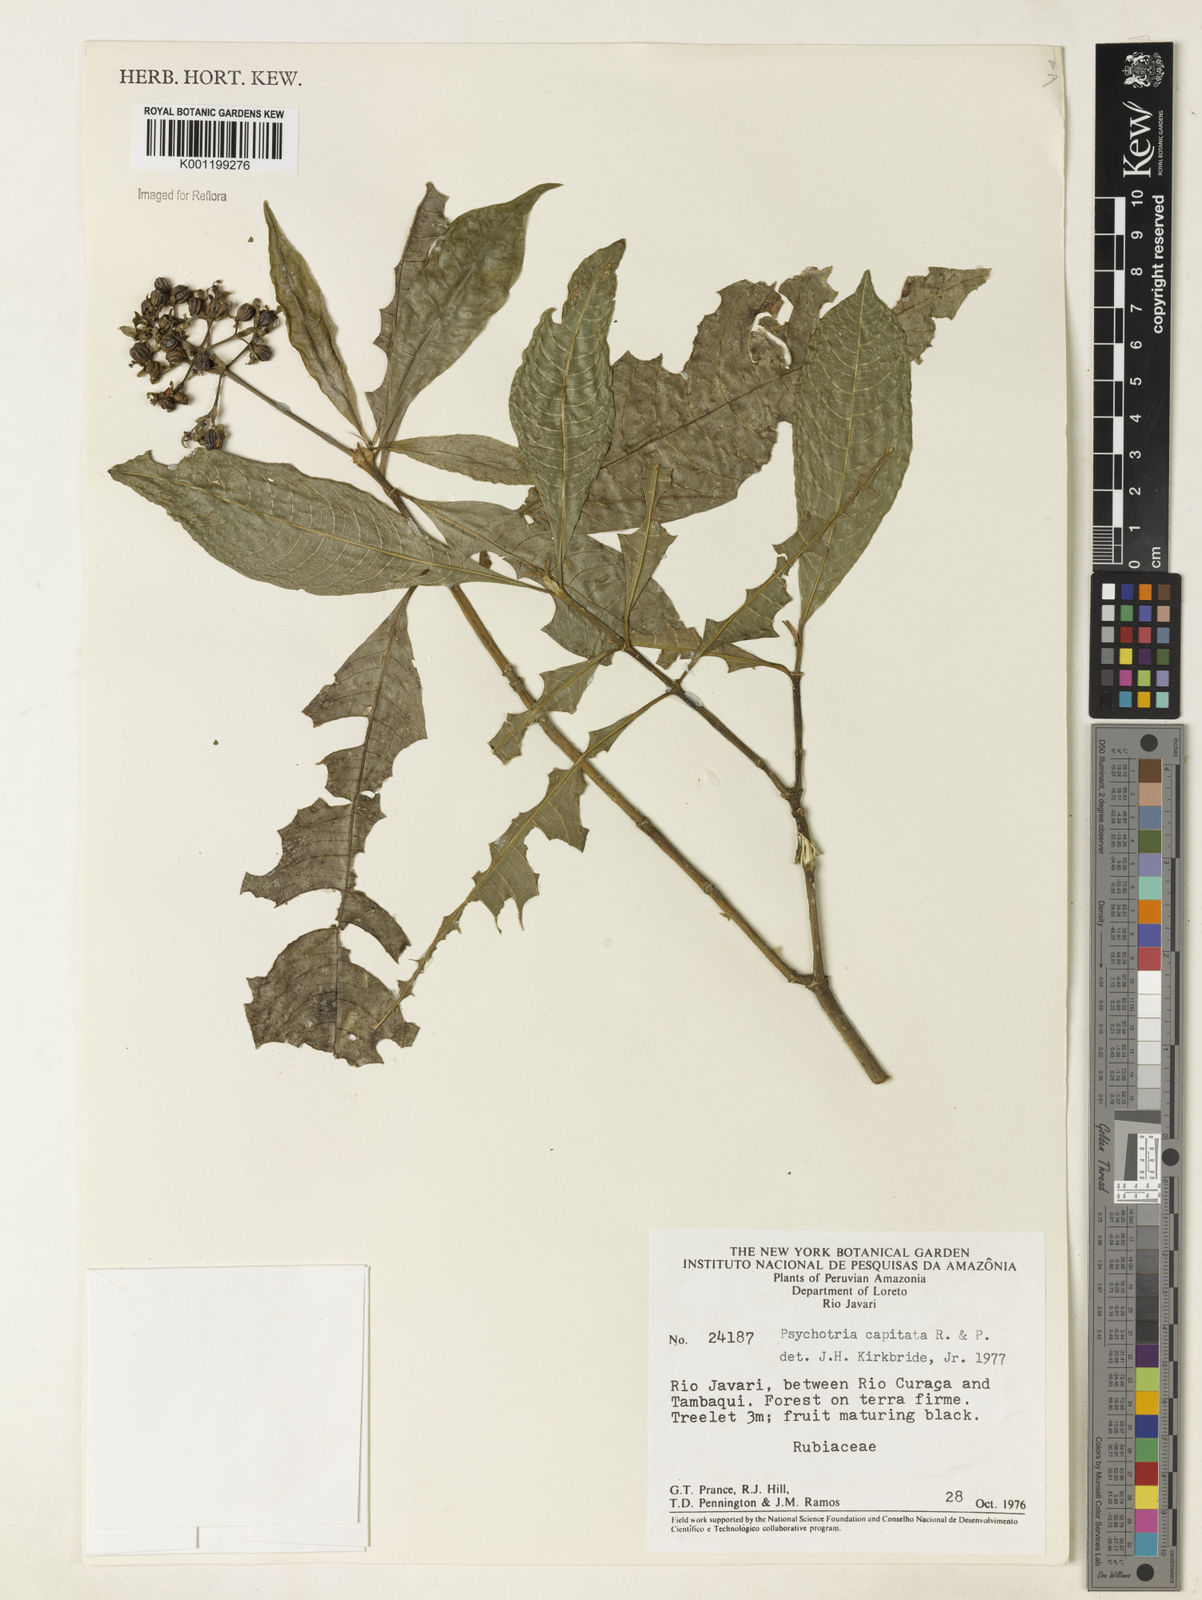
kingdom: Plantae
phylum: Tracheophyta
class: Magnoliopsida
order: Gentianales
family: Rubiaceae
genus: Palicourea
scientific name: Palicourea violacea
